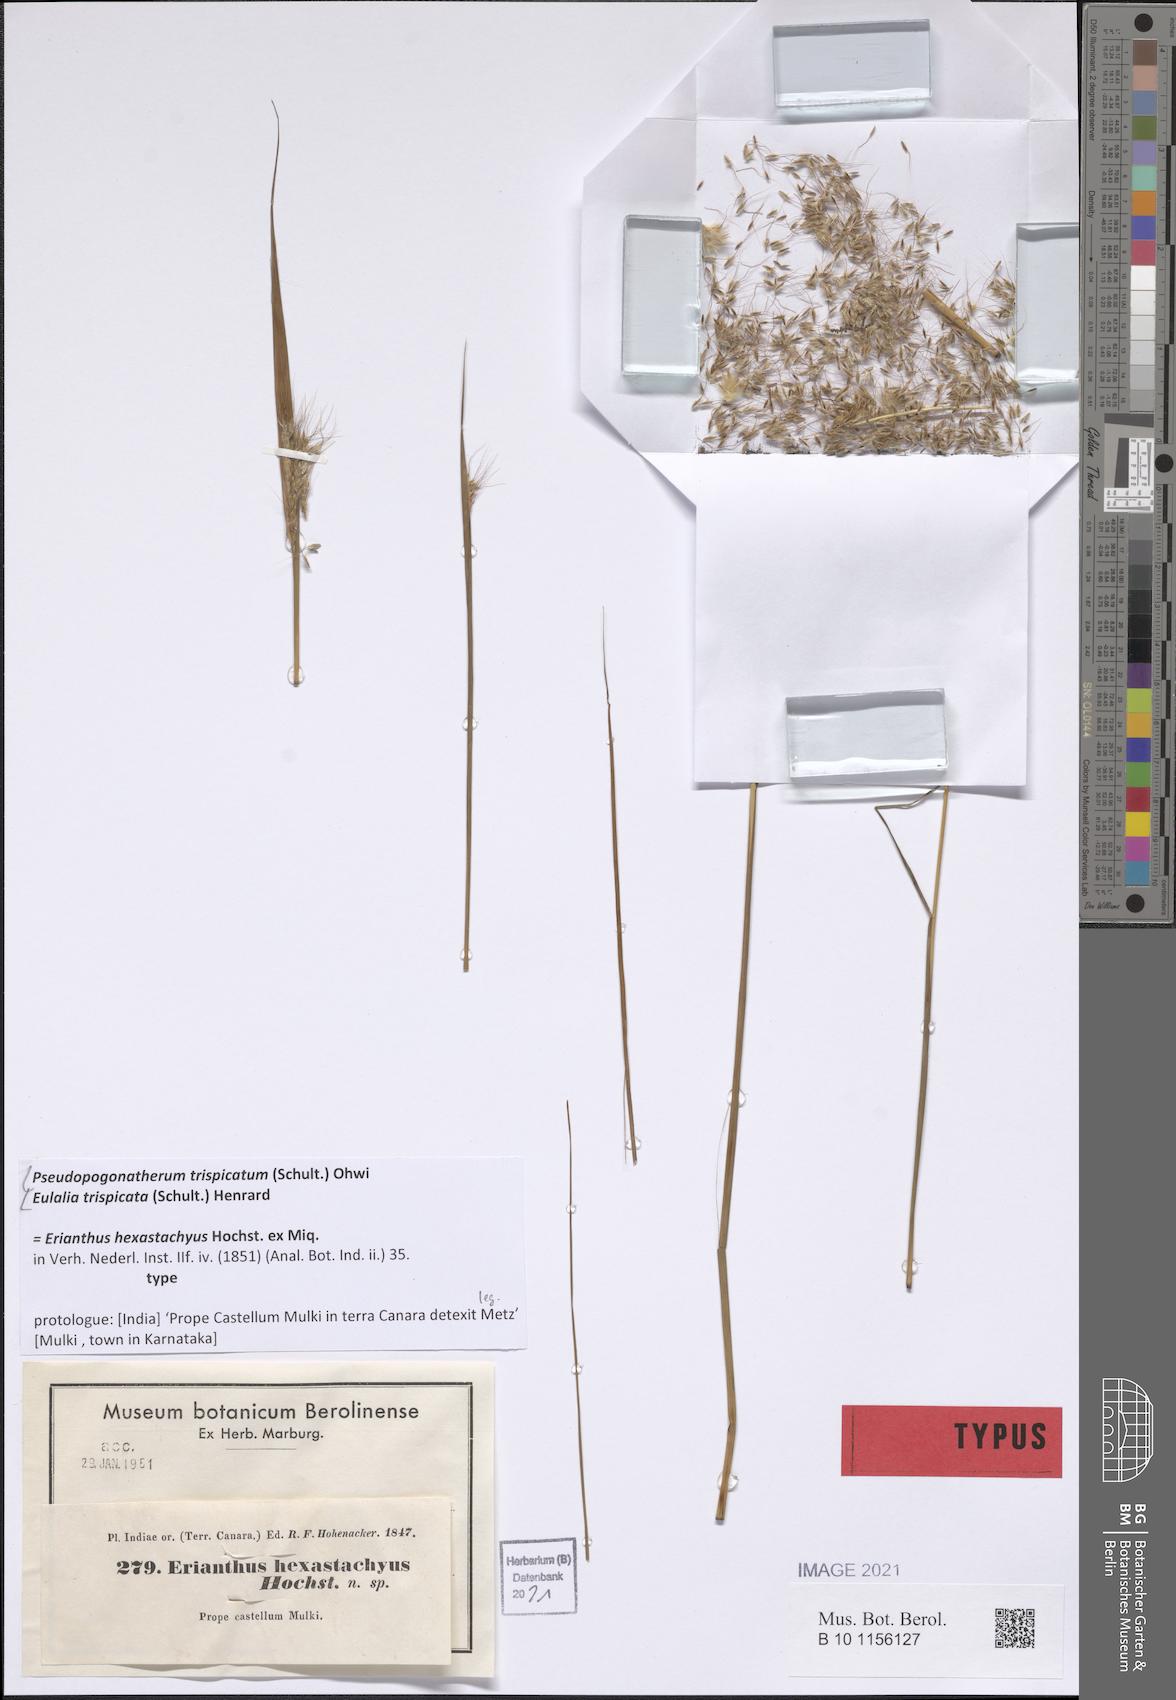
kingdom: Plantae
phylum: Tracheophyta
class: Liliopsida
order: Poales
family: Poaceae
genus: Pseudopogonatherum
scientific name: Pseudopogonatherum trispicatum
